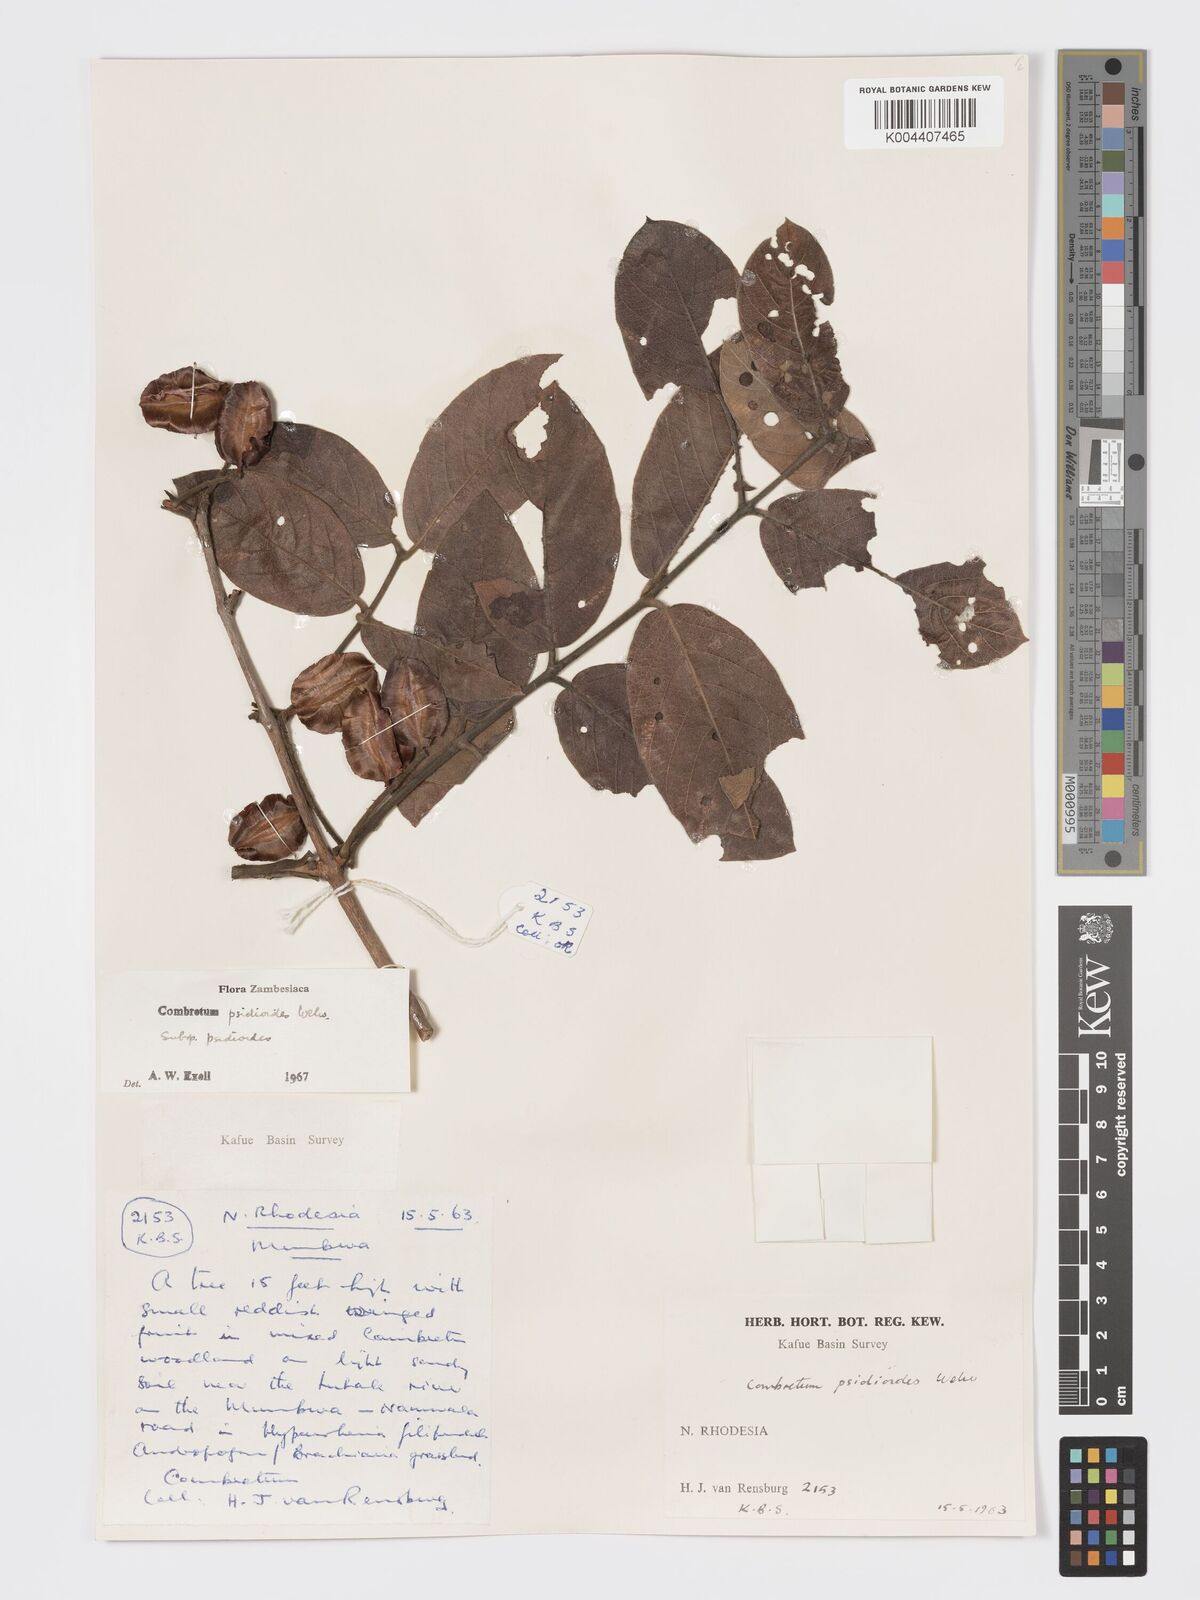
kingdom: Plantae
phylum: Tracheophyta
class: Magnoliopsida
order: Myrtales
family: Combretaceae
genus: Combretum
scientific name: Combretum psidioides
